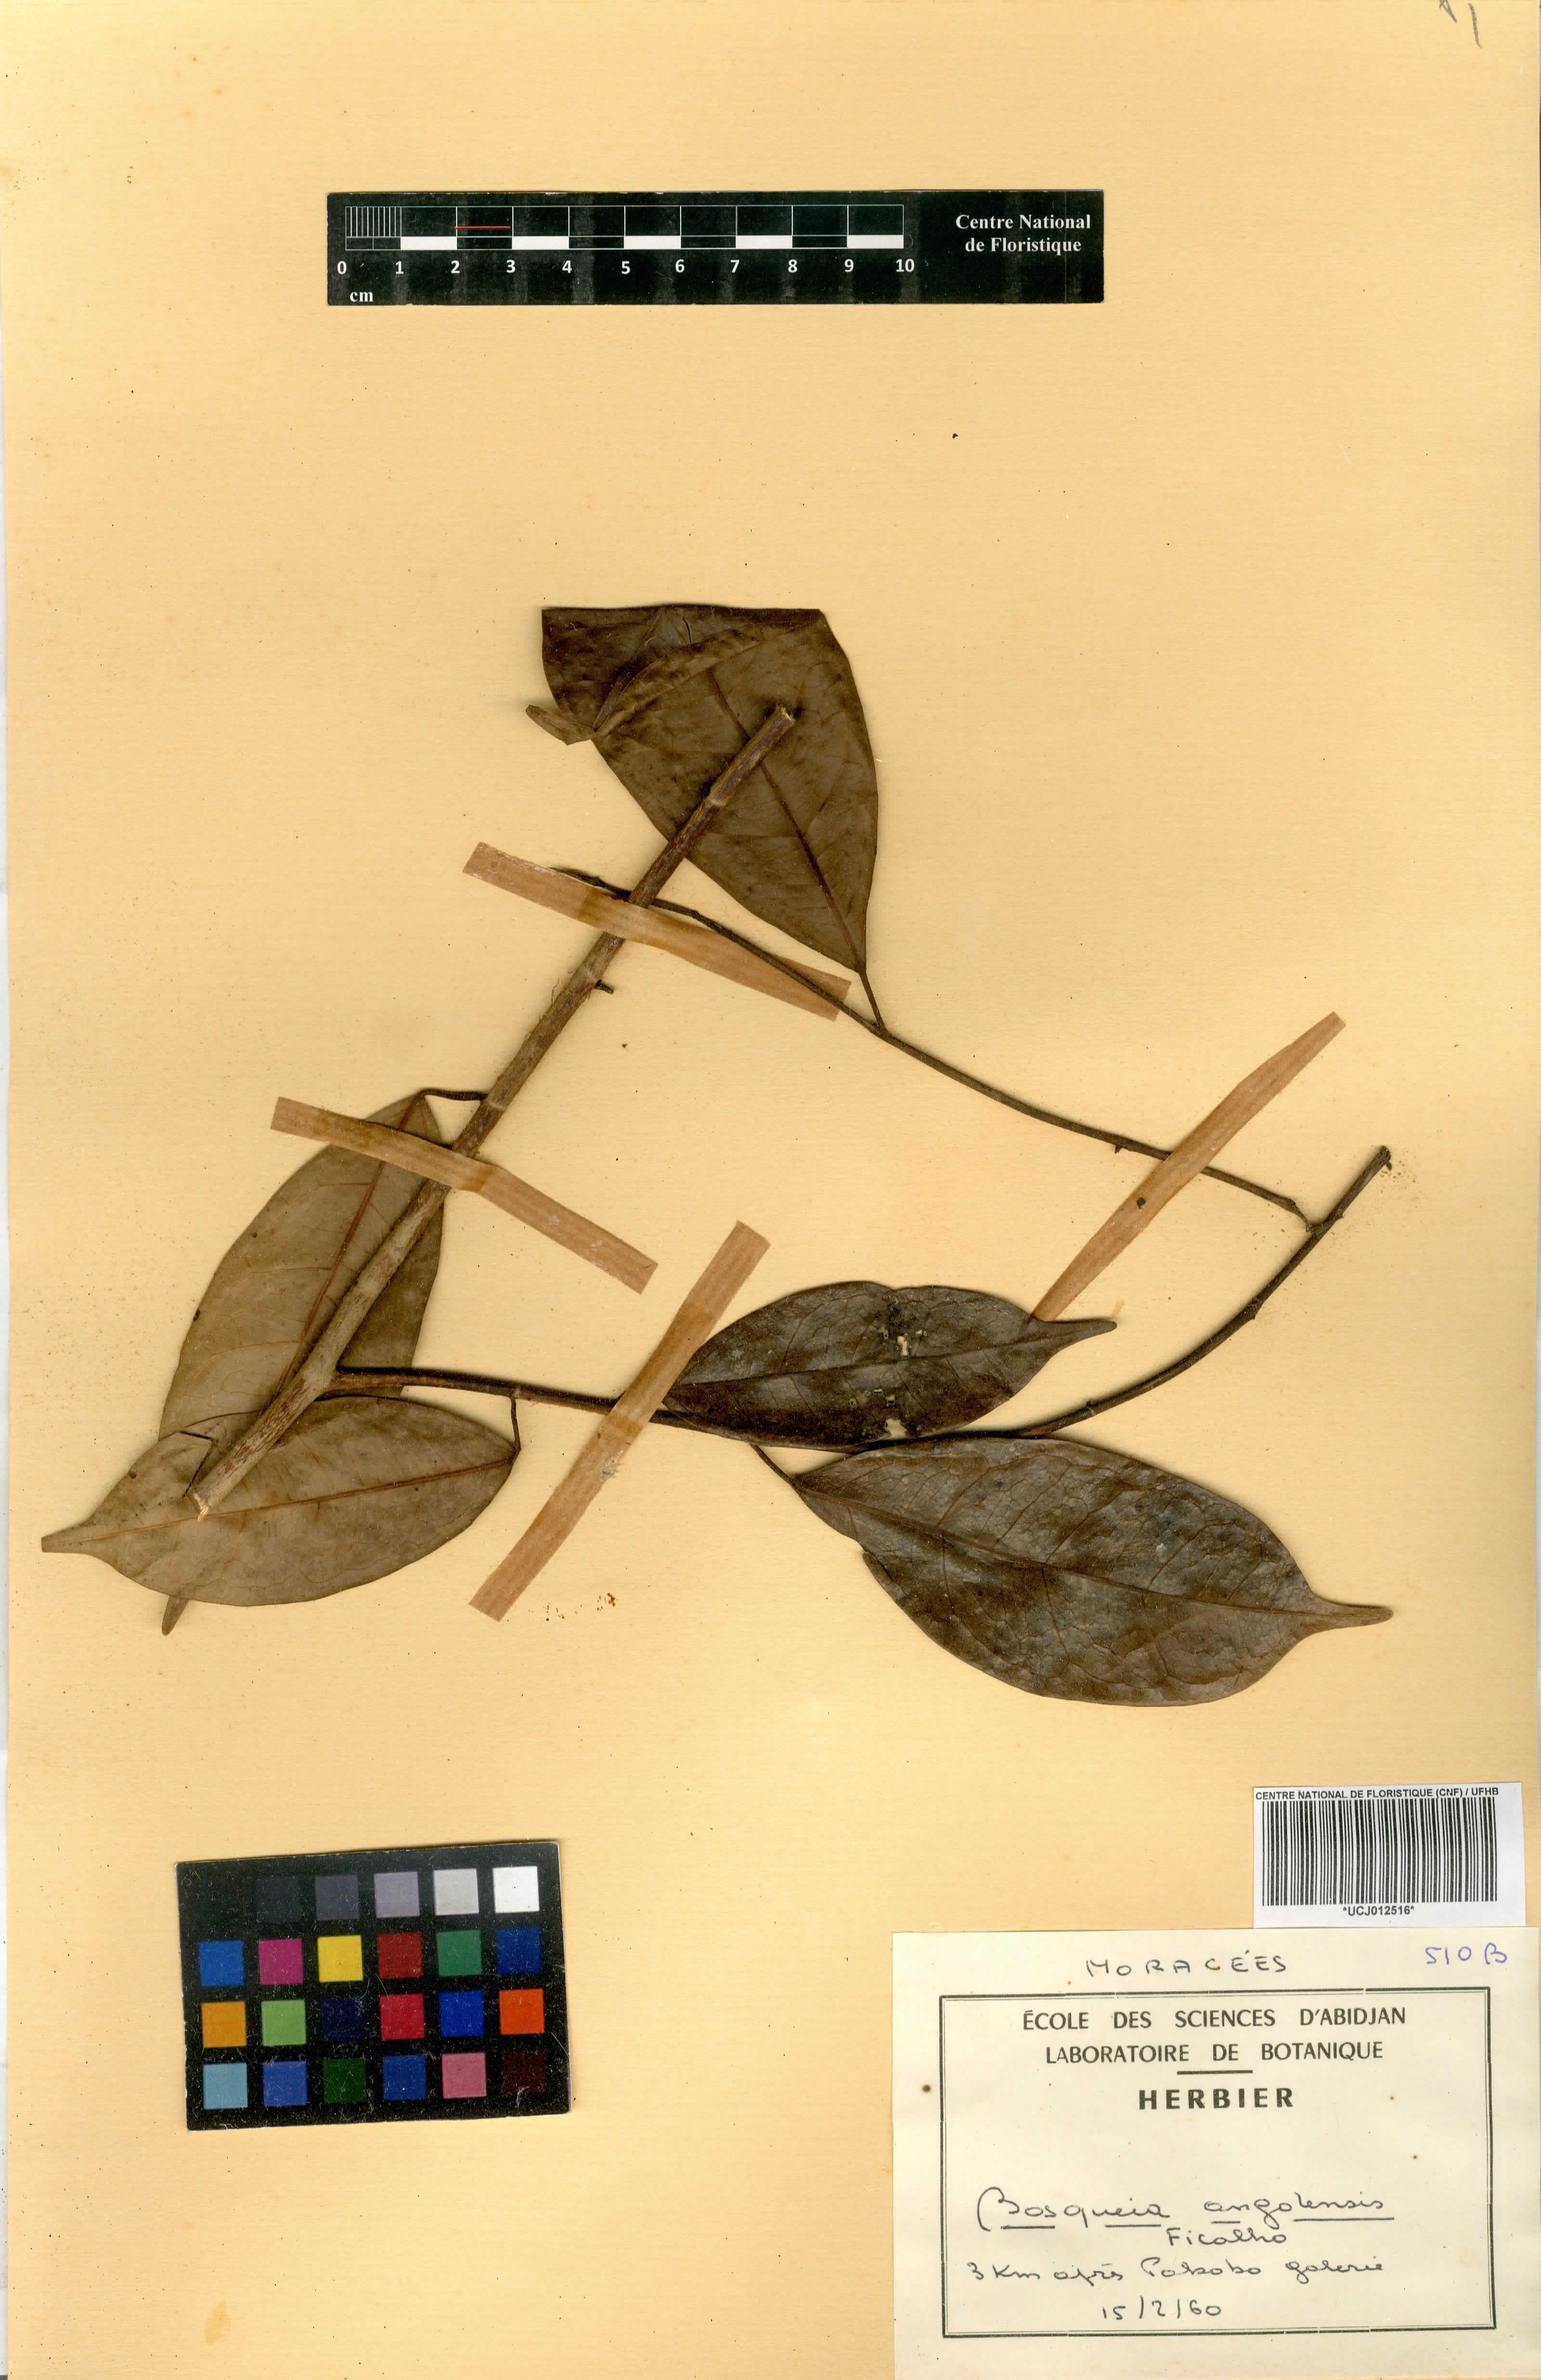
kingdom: Plantae
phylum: Tracheophyta
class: Magnoliopsida
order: Rosales
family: Moraceae
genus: Trilepisium
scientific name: Trilepisium madagascariense
